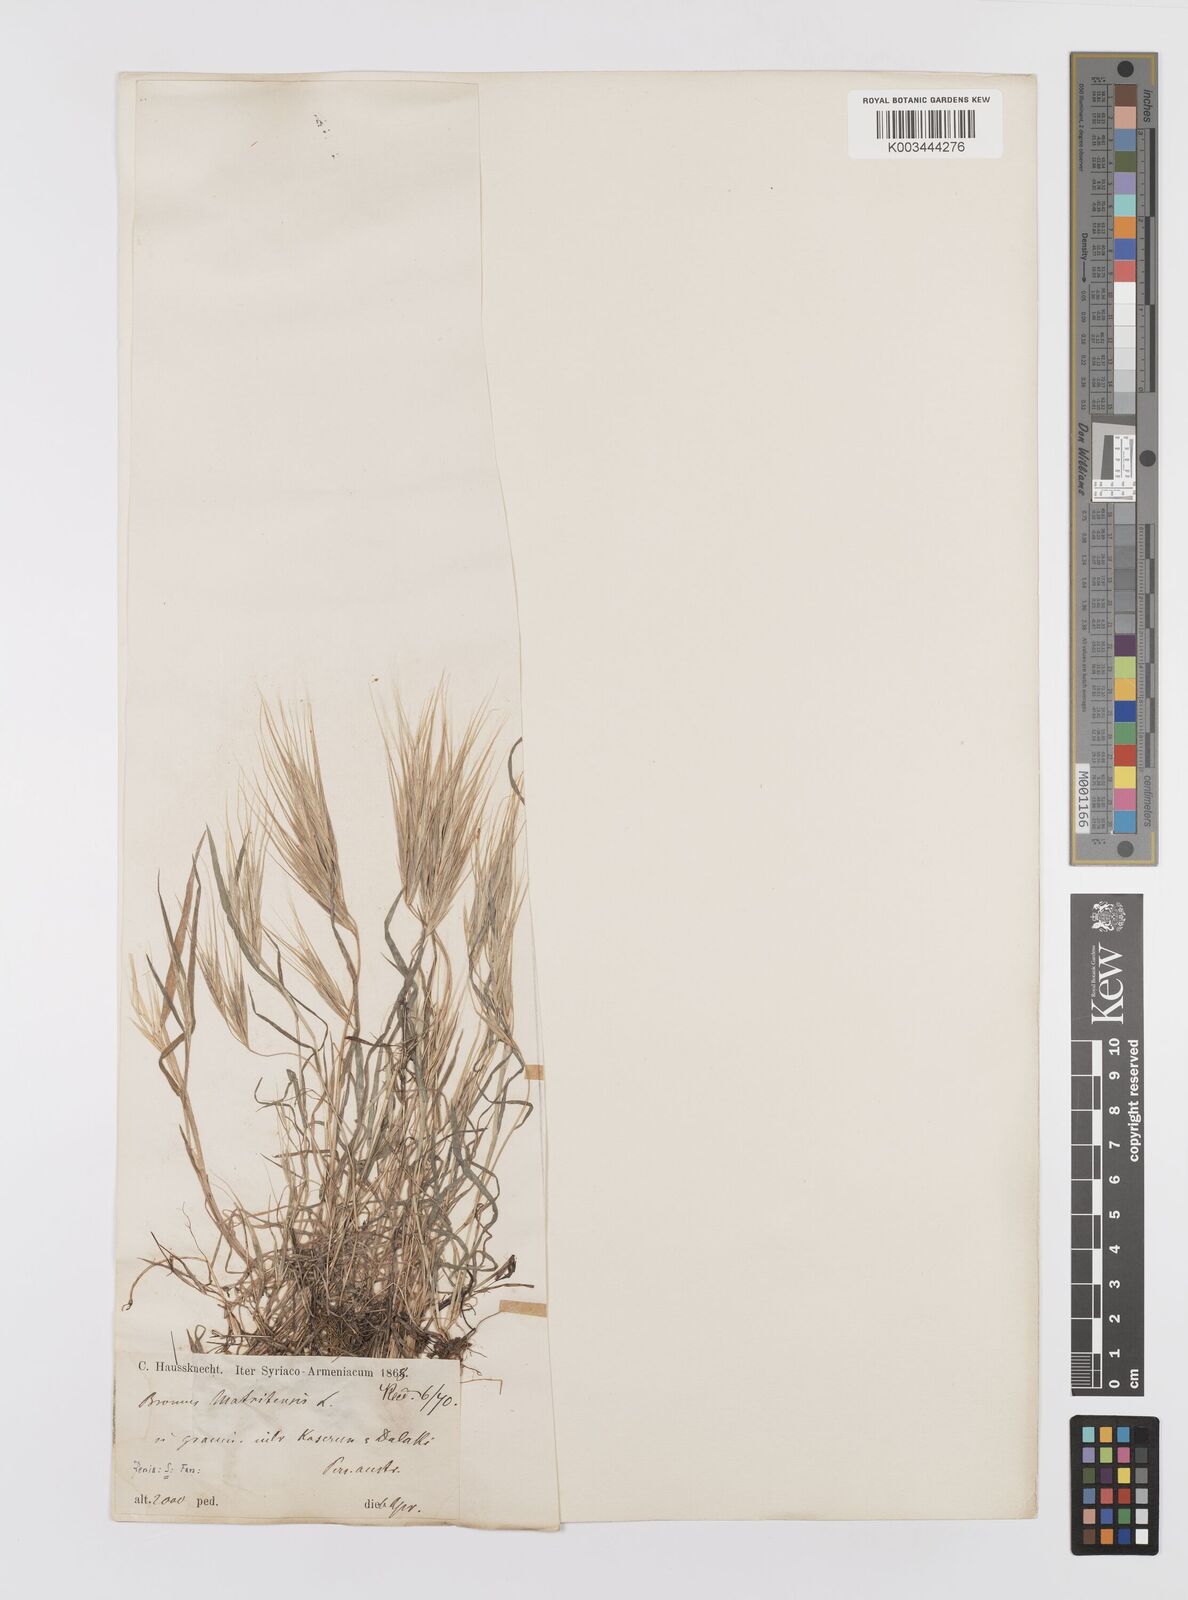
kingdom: Plantae
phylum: Tracheophyta
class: Liliopsida
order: Poales
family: Poaceae
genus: Bromus
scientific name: Bromus madritensis
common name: Compact brome
